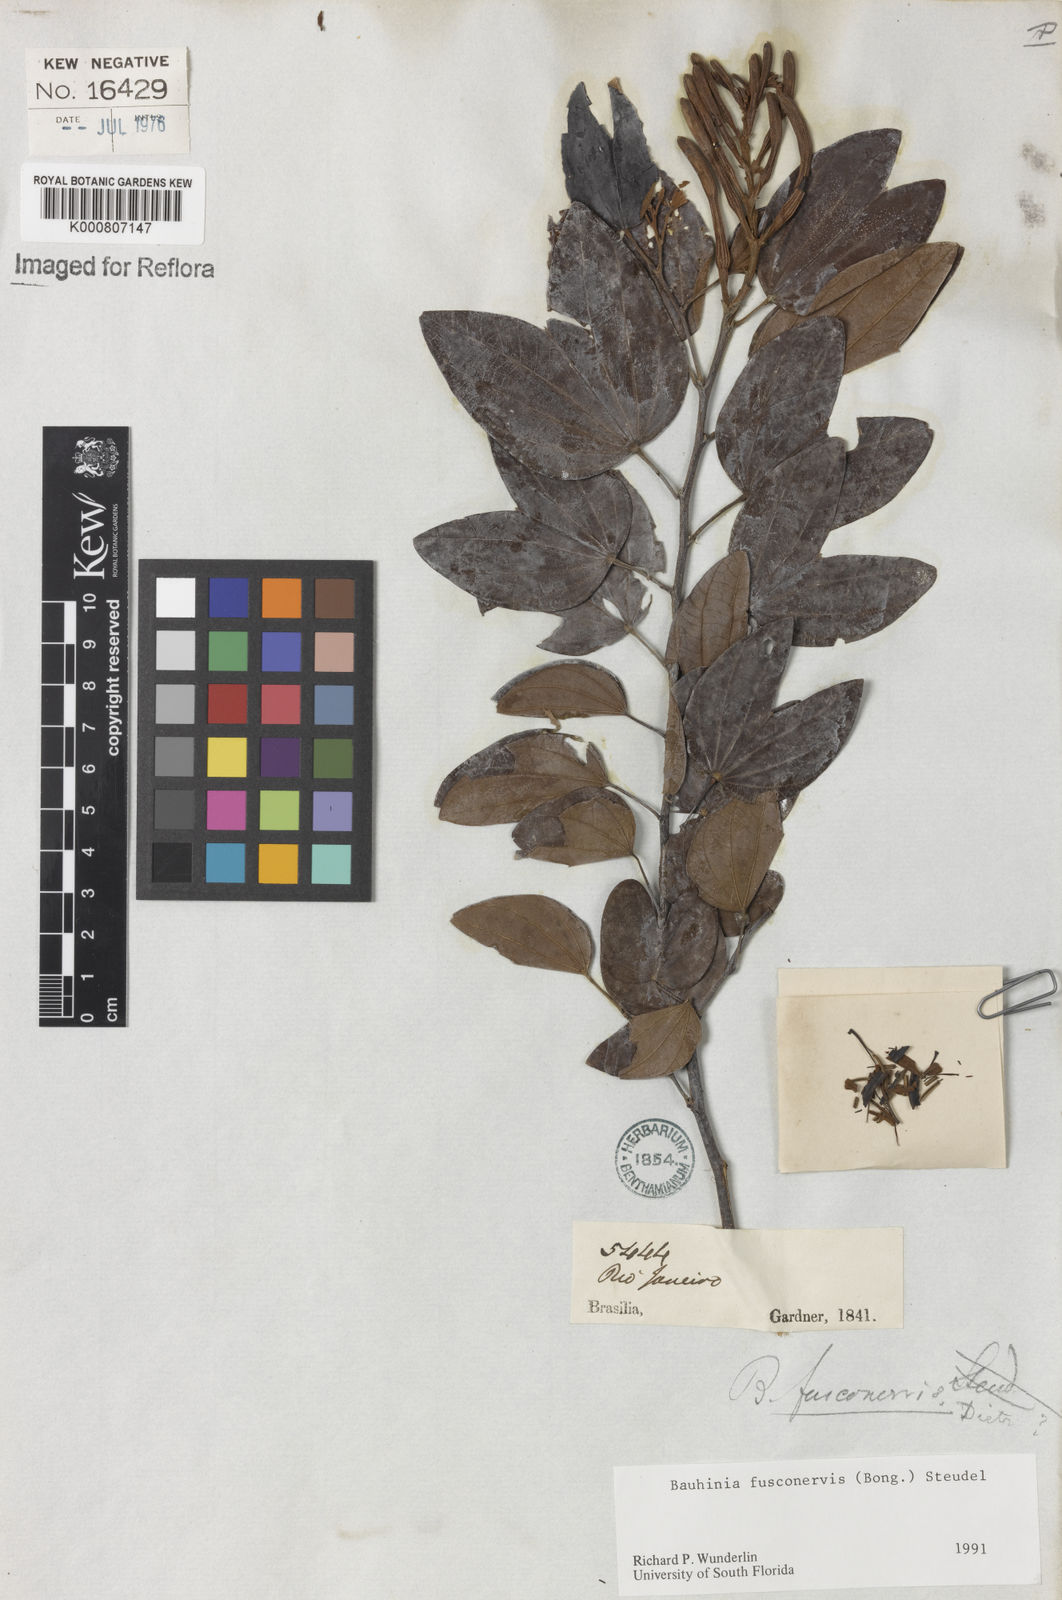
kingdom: Plantae
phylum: Tracheophyta
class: Magnoliopsida
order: Fabales
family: Fabaceae
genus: Bauhinia
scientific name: Bauhinia
